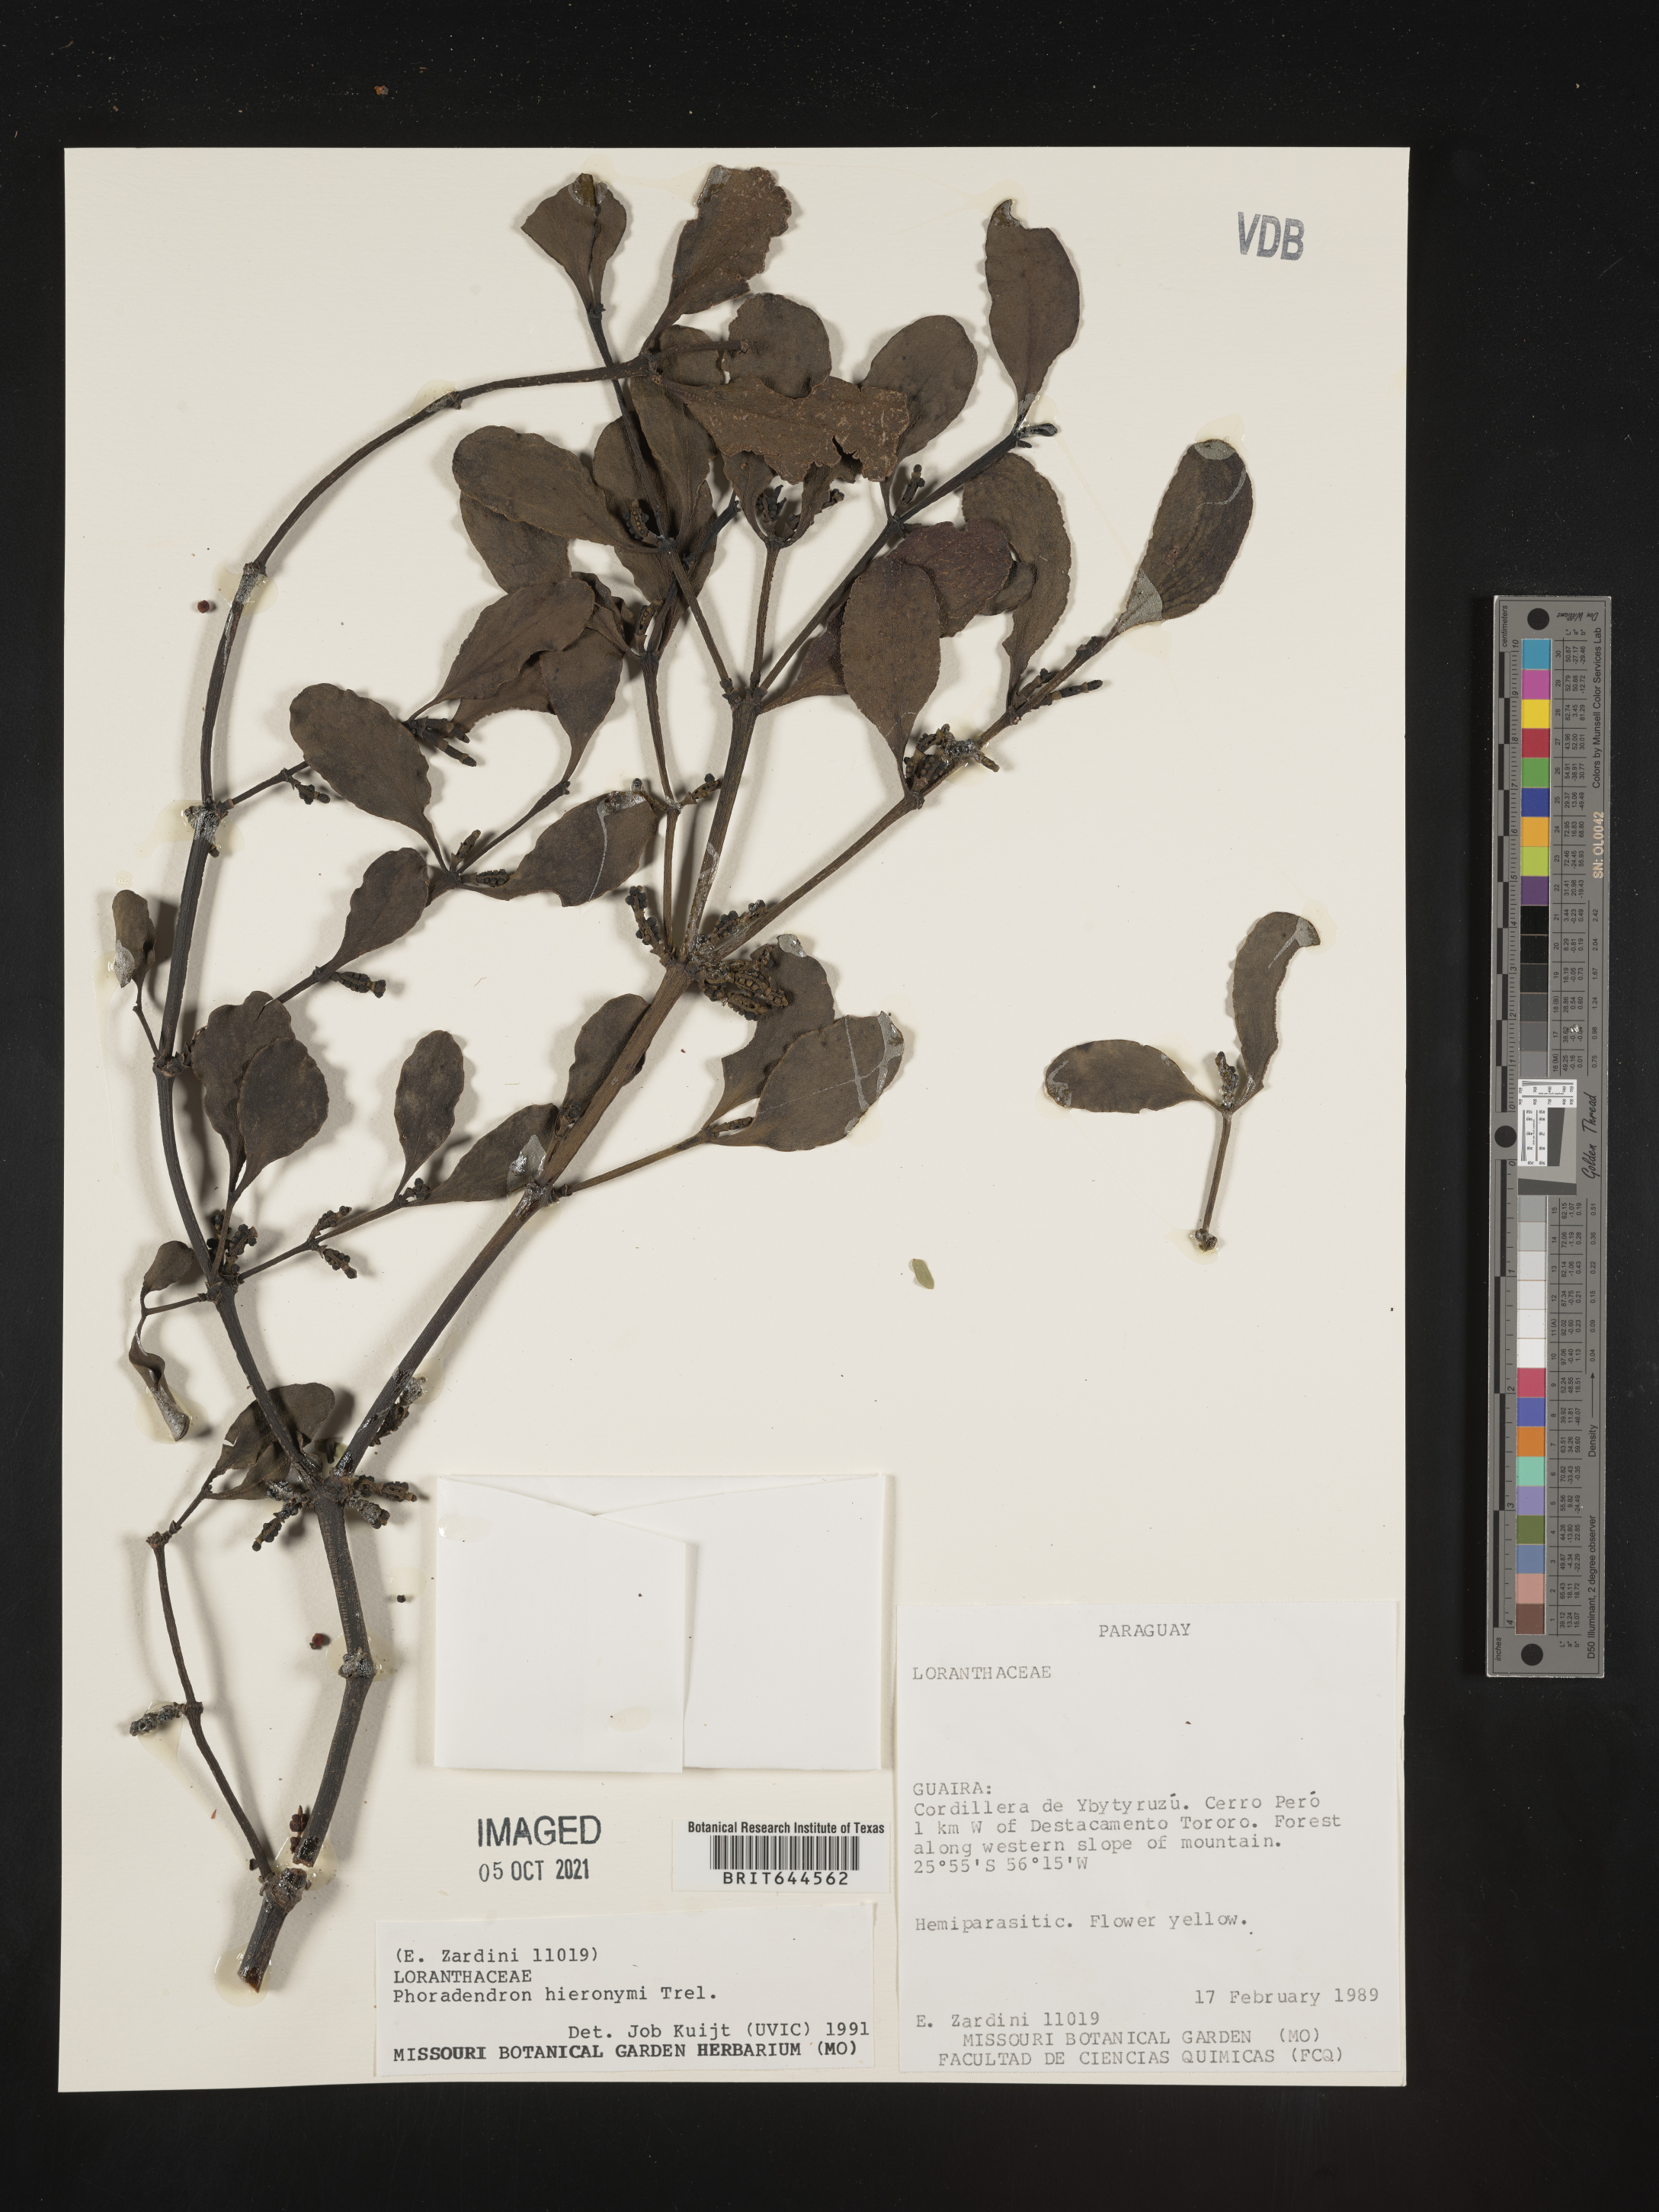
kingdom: Plantae
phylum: Tracheophyta
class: Magnoliopsida
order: Santalales
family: Viscaceae
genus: Phoradendron
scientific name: Phoradendron
